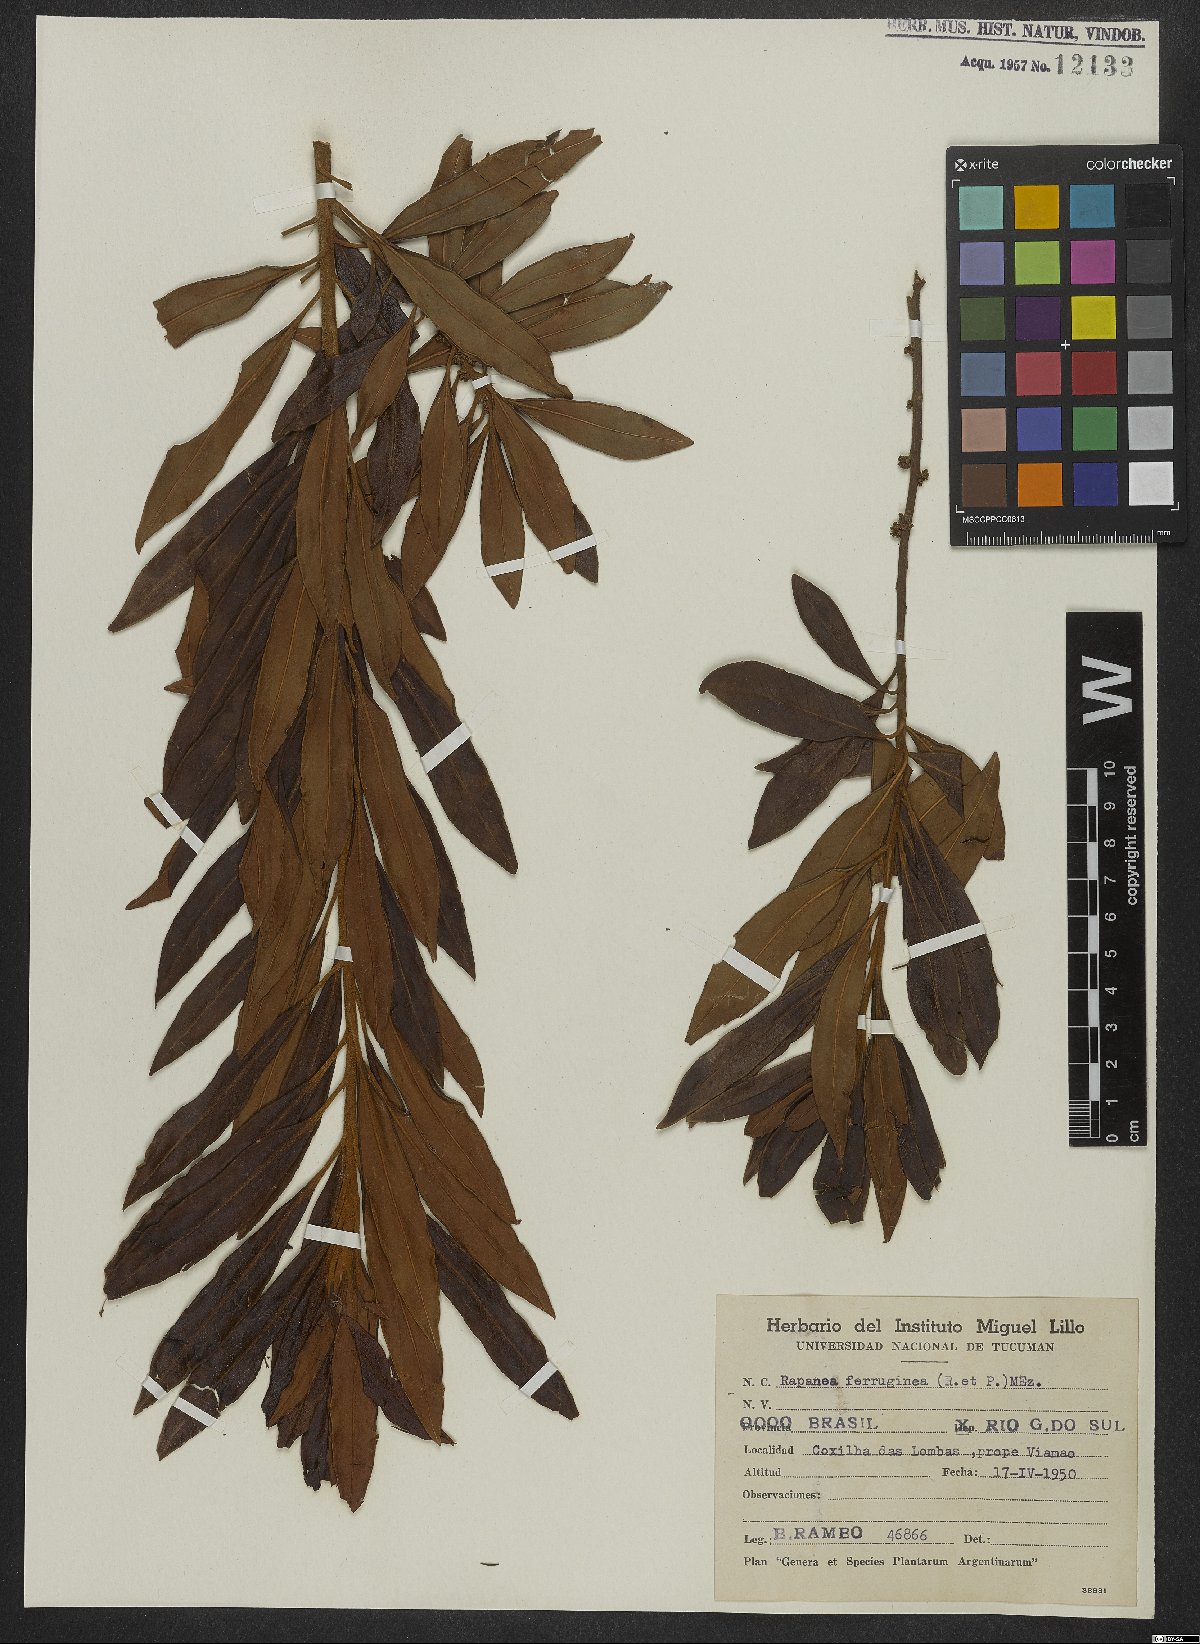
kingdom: Plantae
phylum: Tracheophyta
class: Magnoliopsida
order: Ericales
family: Primulaceae
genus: Myrsine
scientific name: Myrsine coriacea
